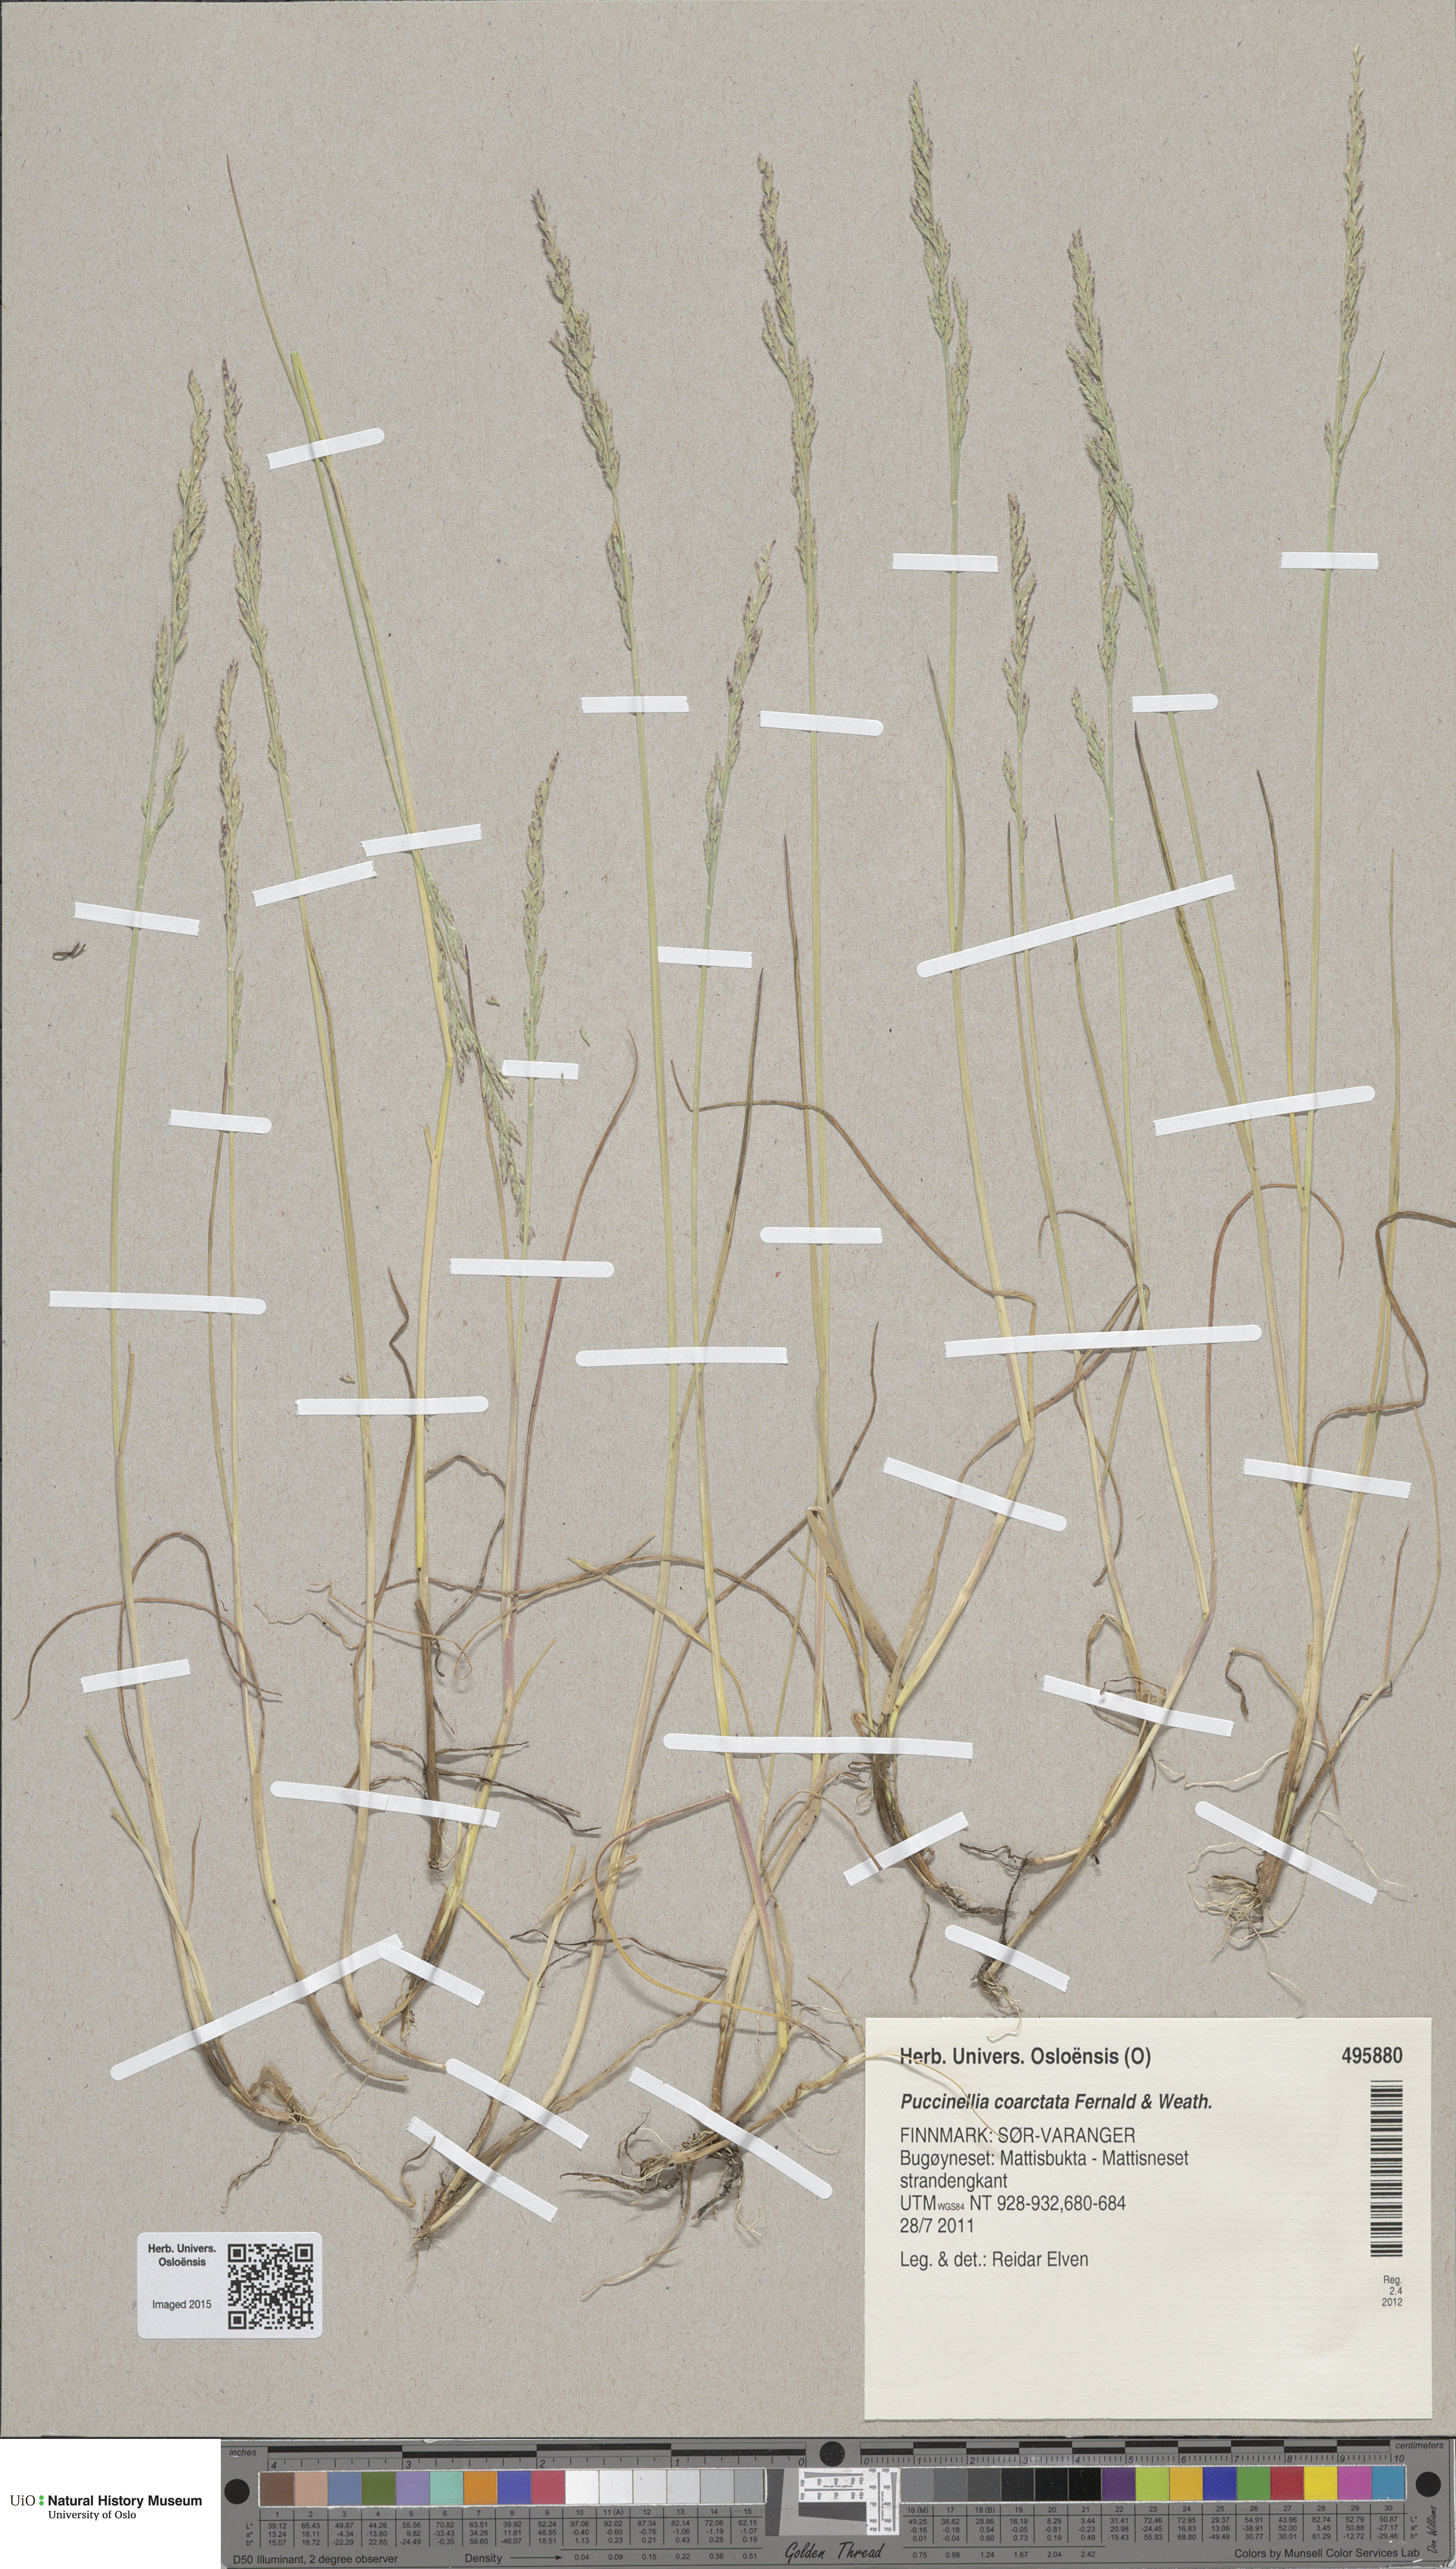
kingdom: Plantae
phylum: Tracheophyta
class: Liliopsida
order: Poales
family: Poaceae
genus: Puccinellia
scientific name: Puccinellia distans
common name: Weeping alkaligrass
